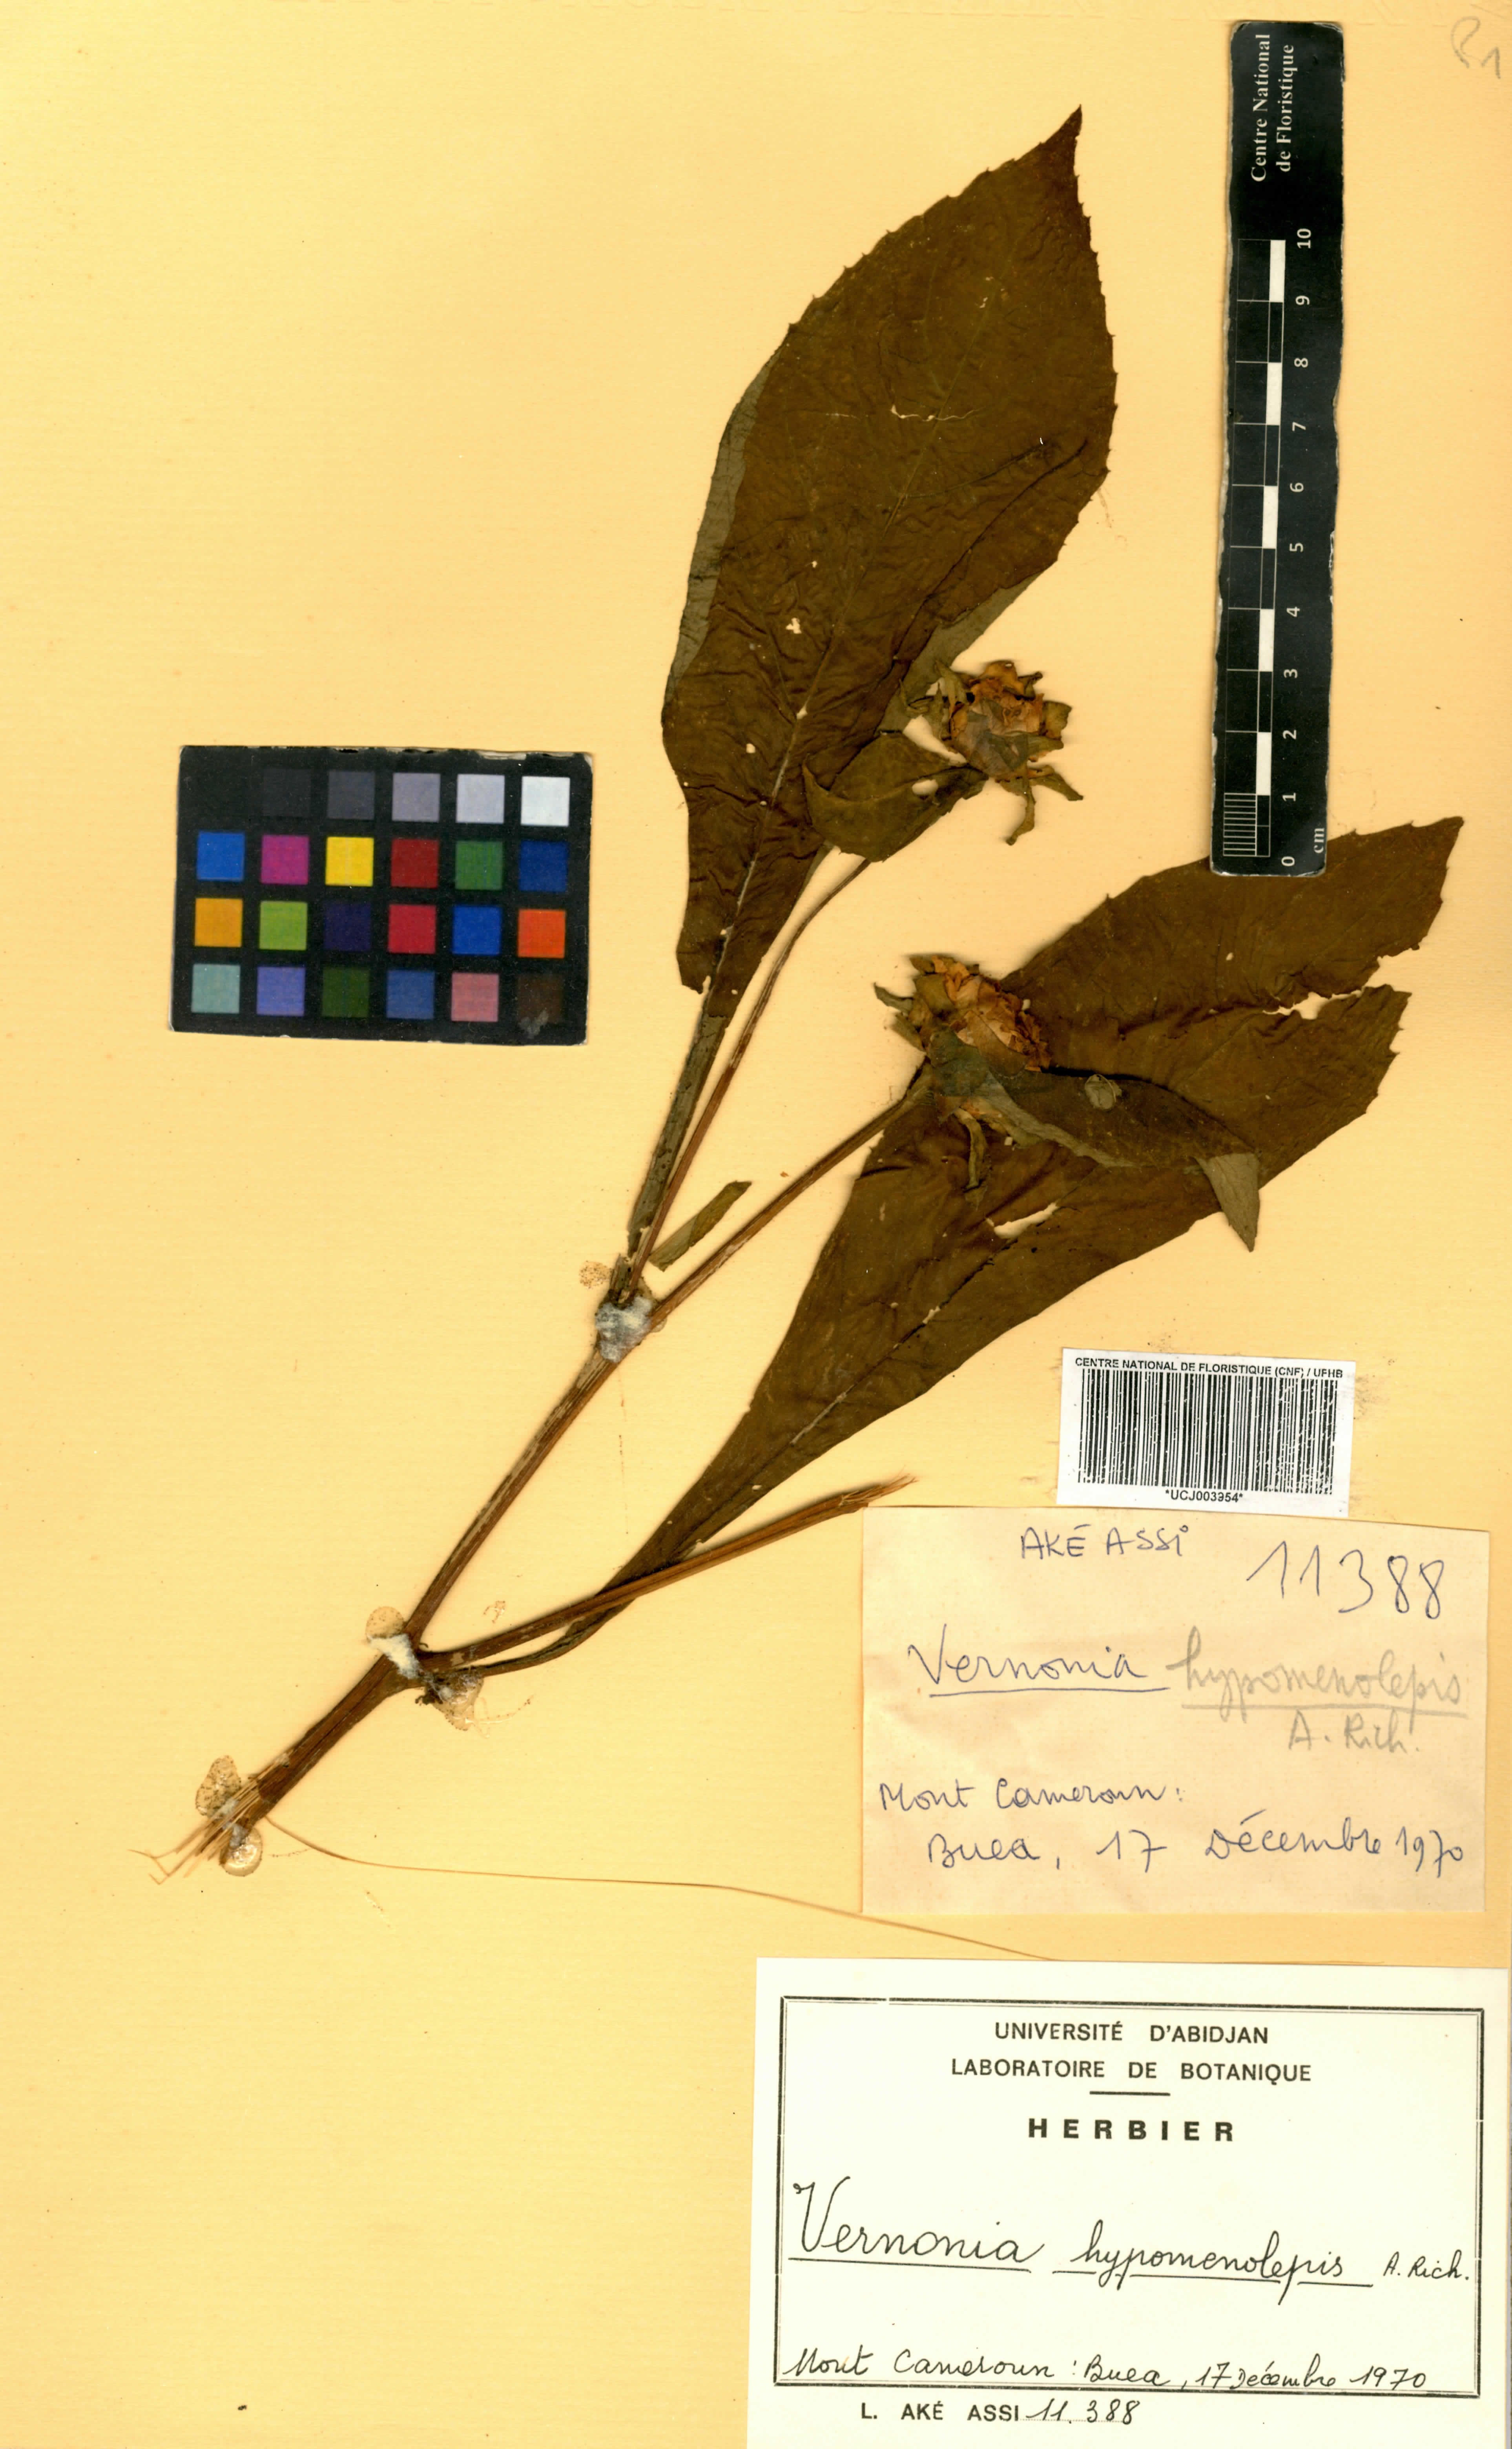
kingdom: Plantae
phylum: Tracheophyta
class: Magnoliopsida
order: Asterales
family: Asteraceae
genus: Vernonia
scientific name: Vernonia
